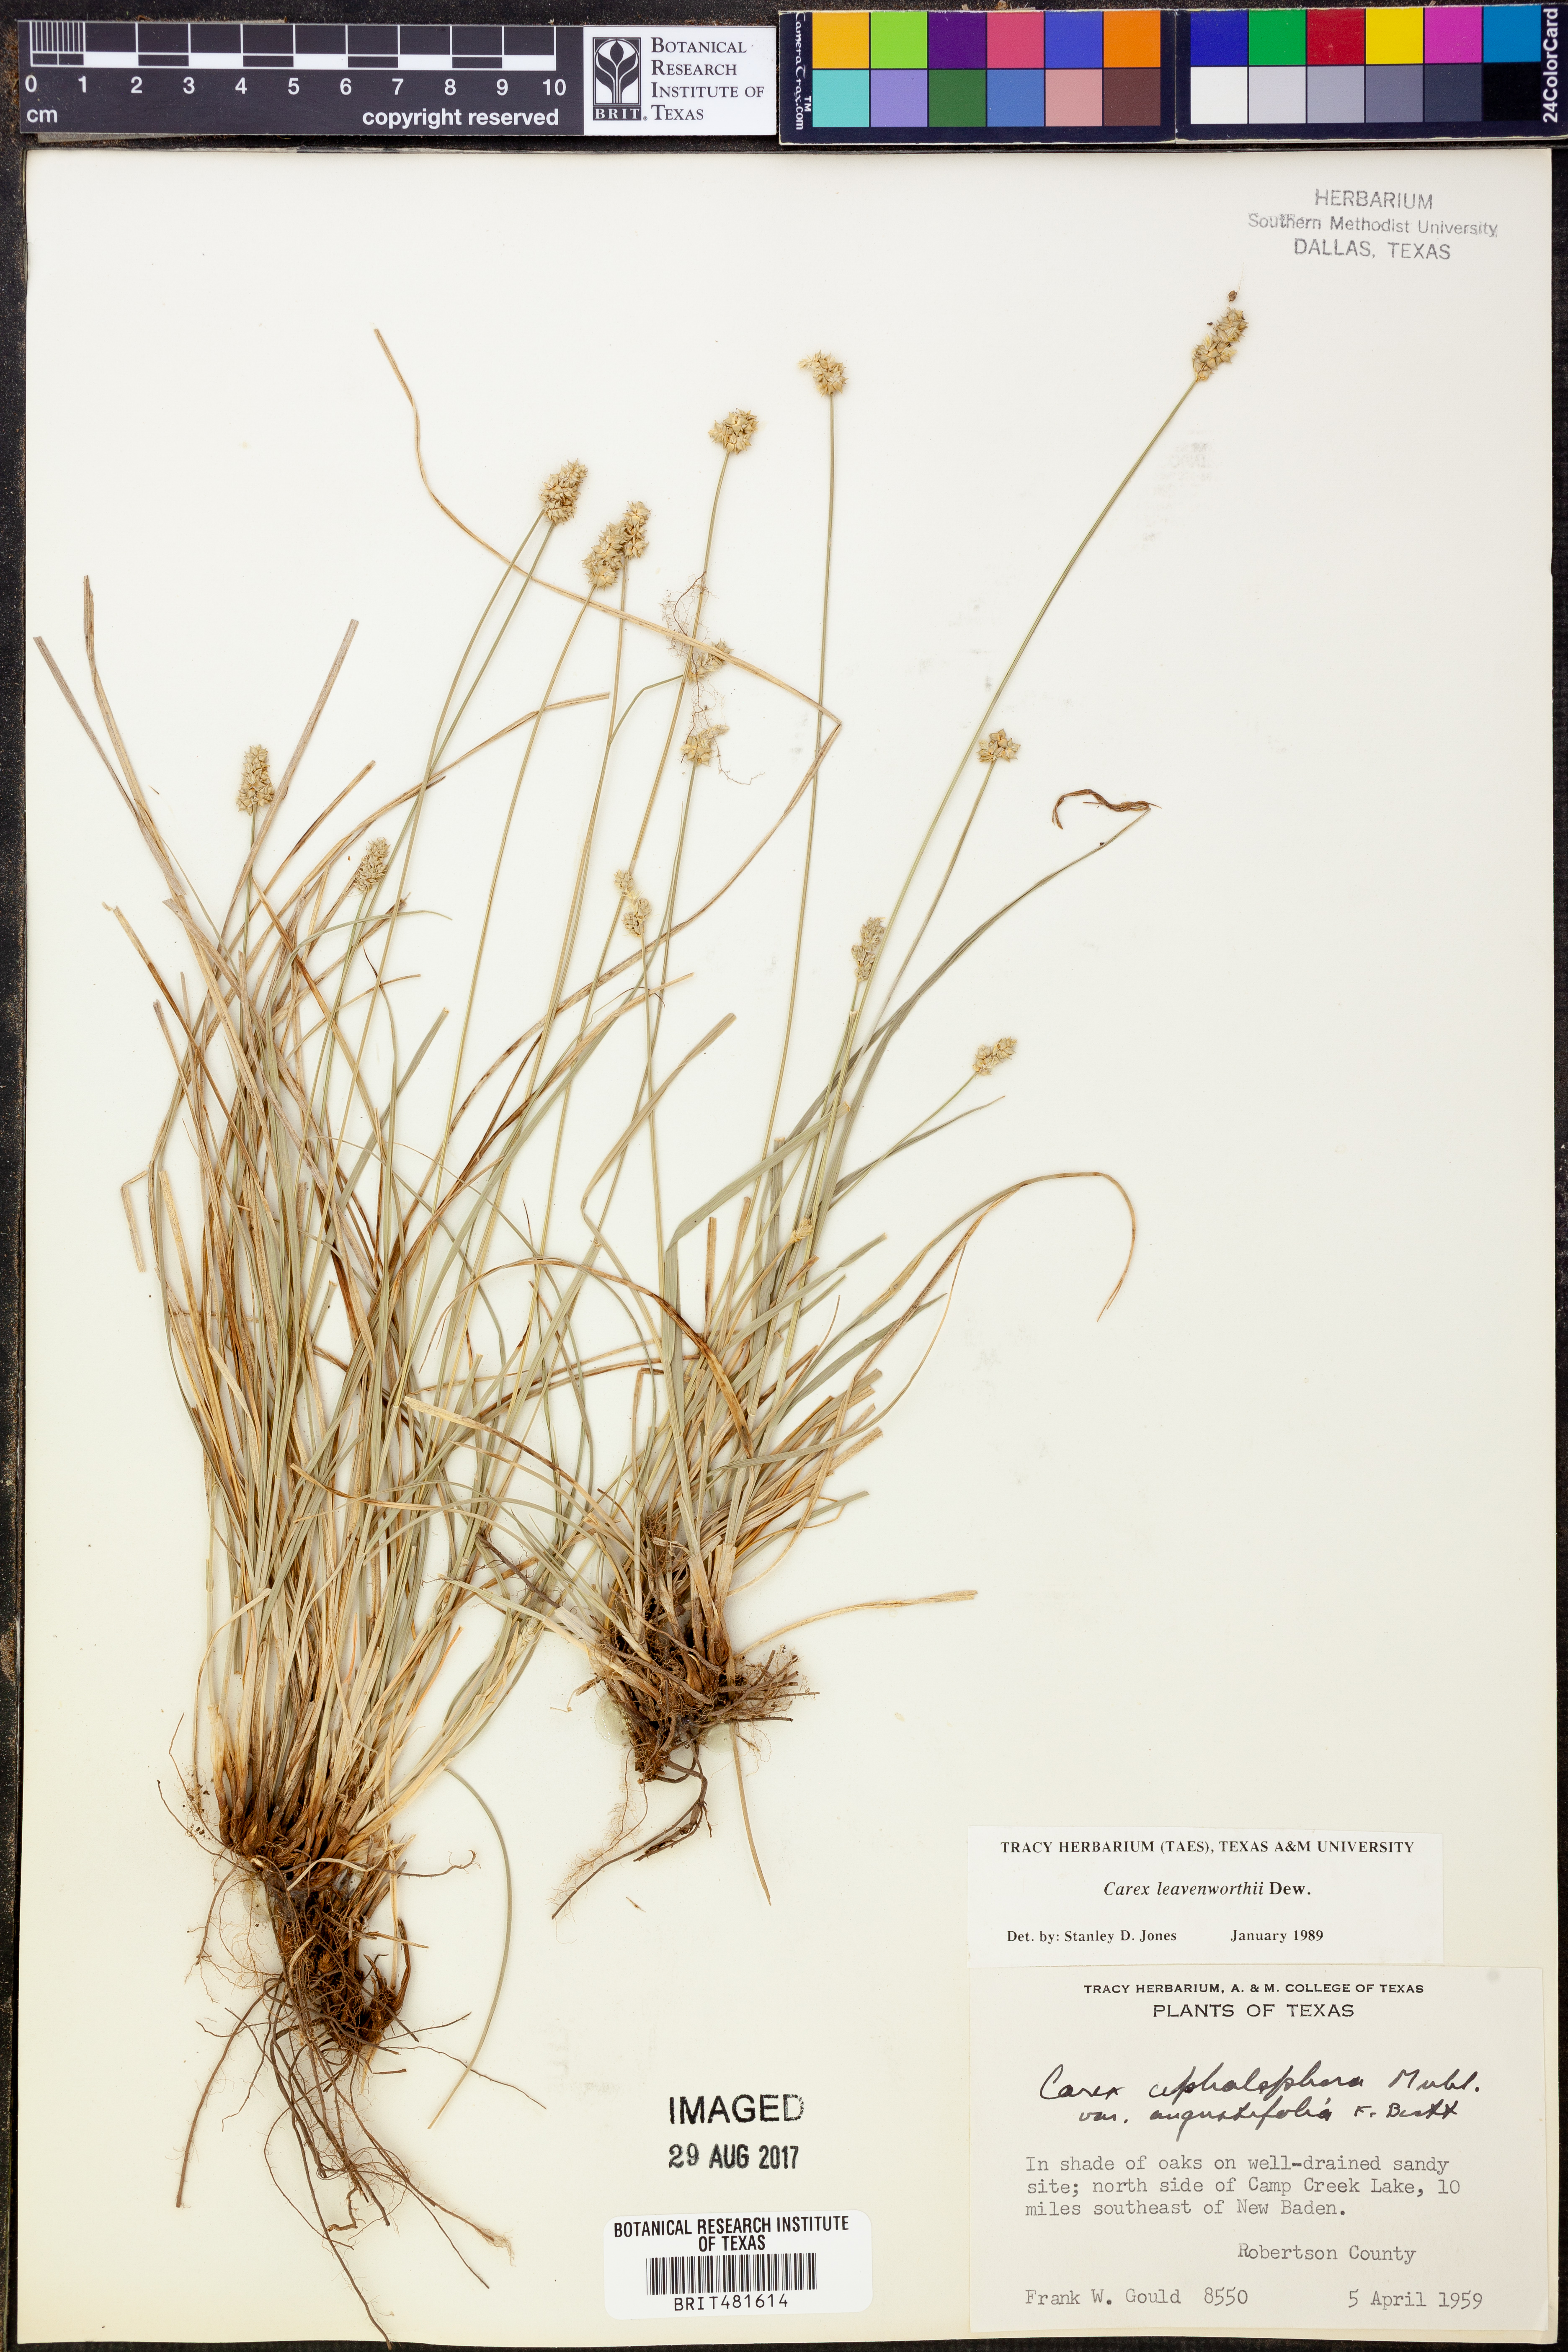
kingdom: Plantae
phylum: Tracheophyta
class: Liliopsida
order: Poales
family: Cyperaceae
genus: Carex
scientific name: Carex leavenworthii
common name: Leavenworth's bracted sedge
